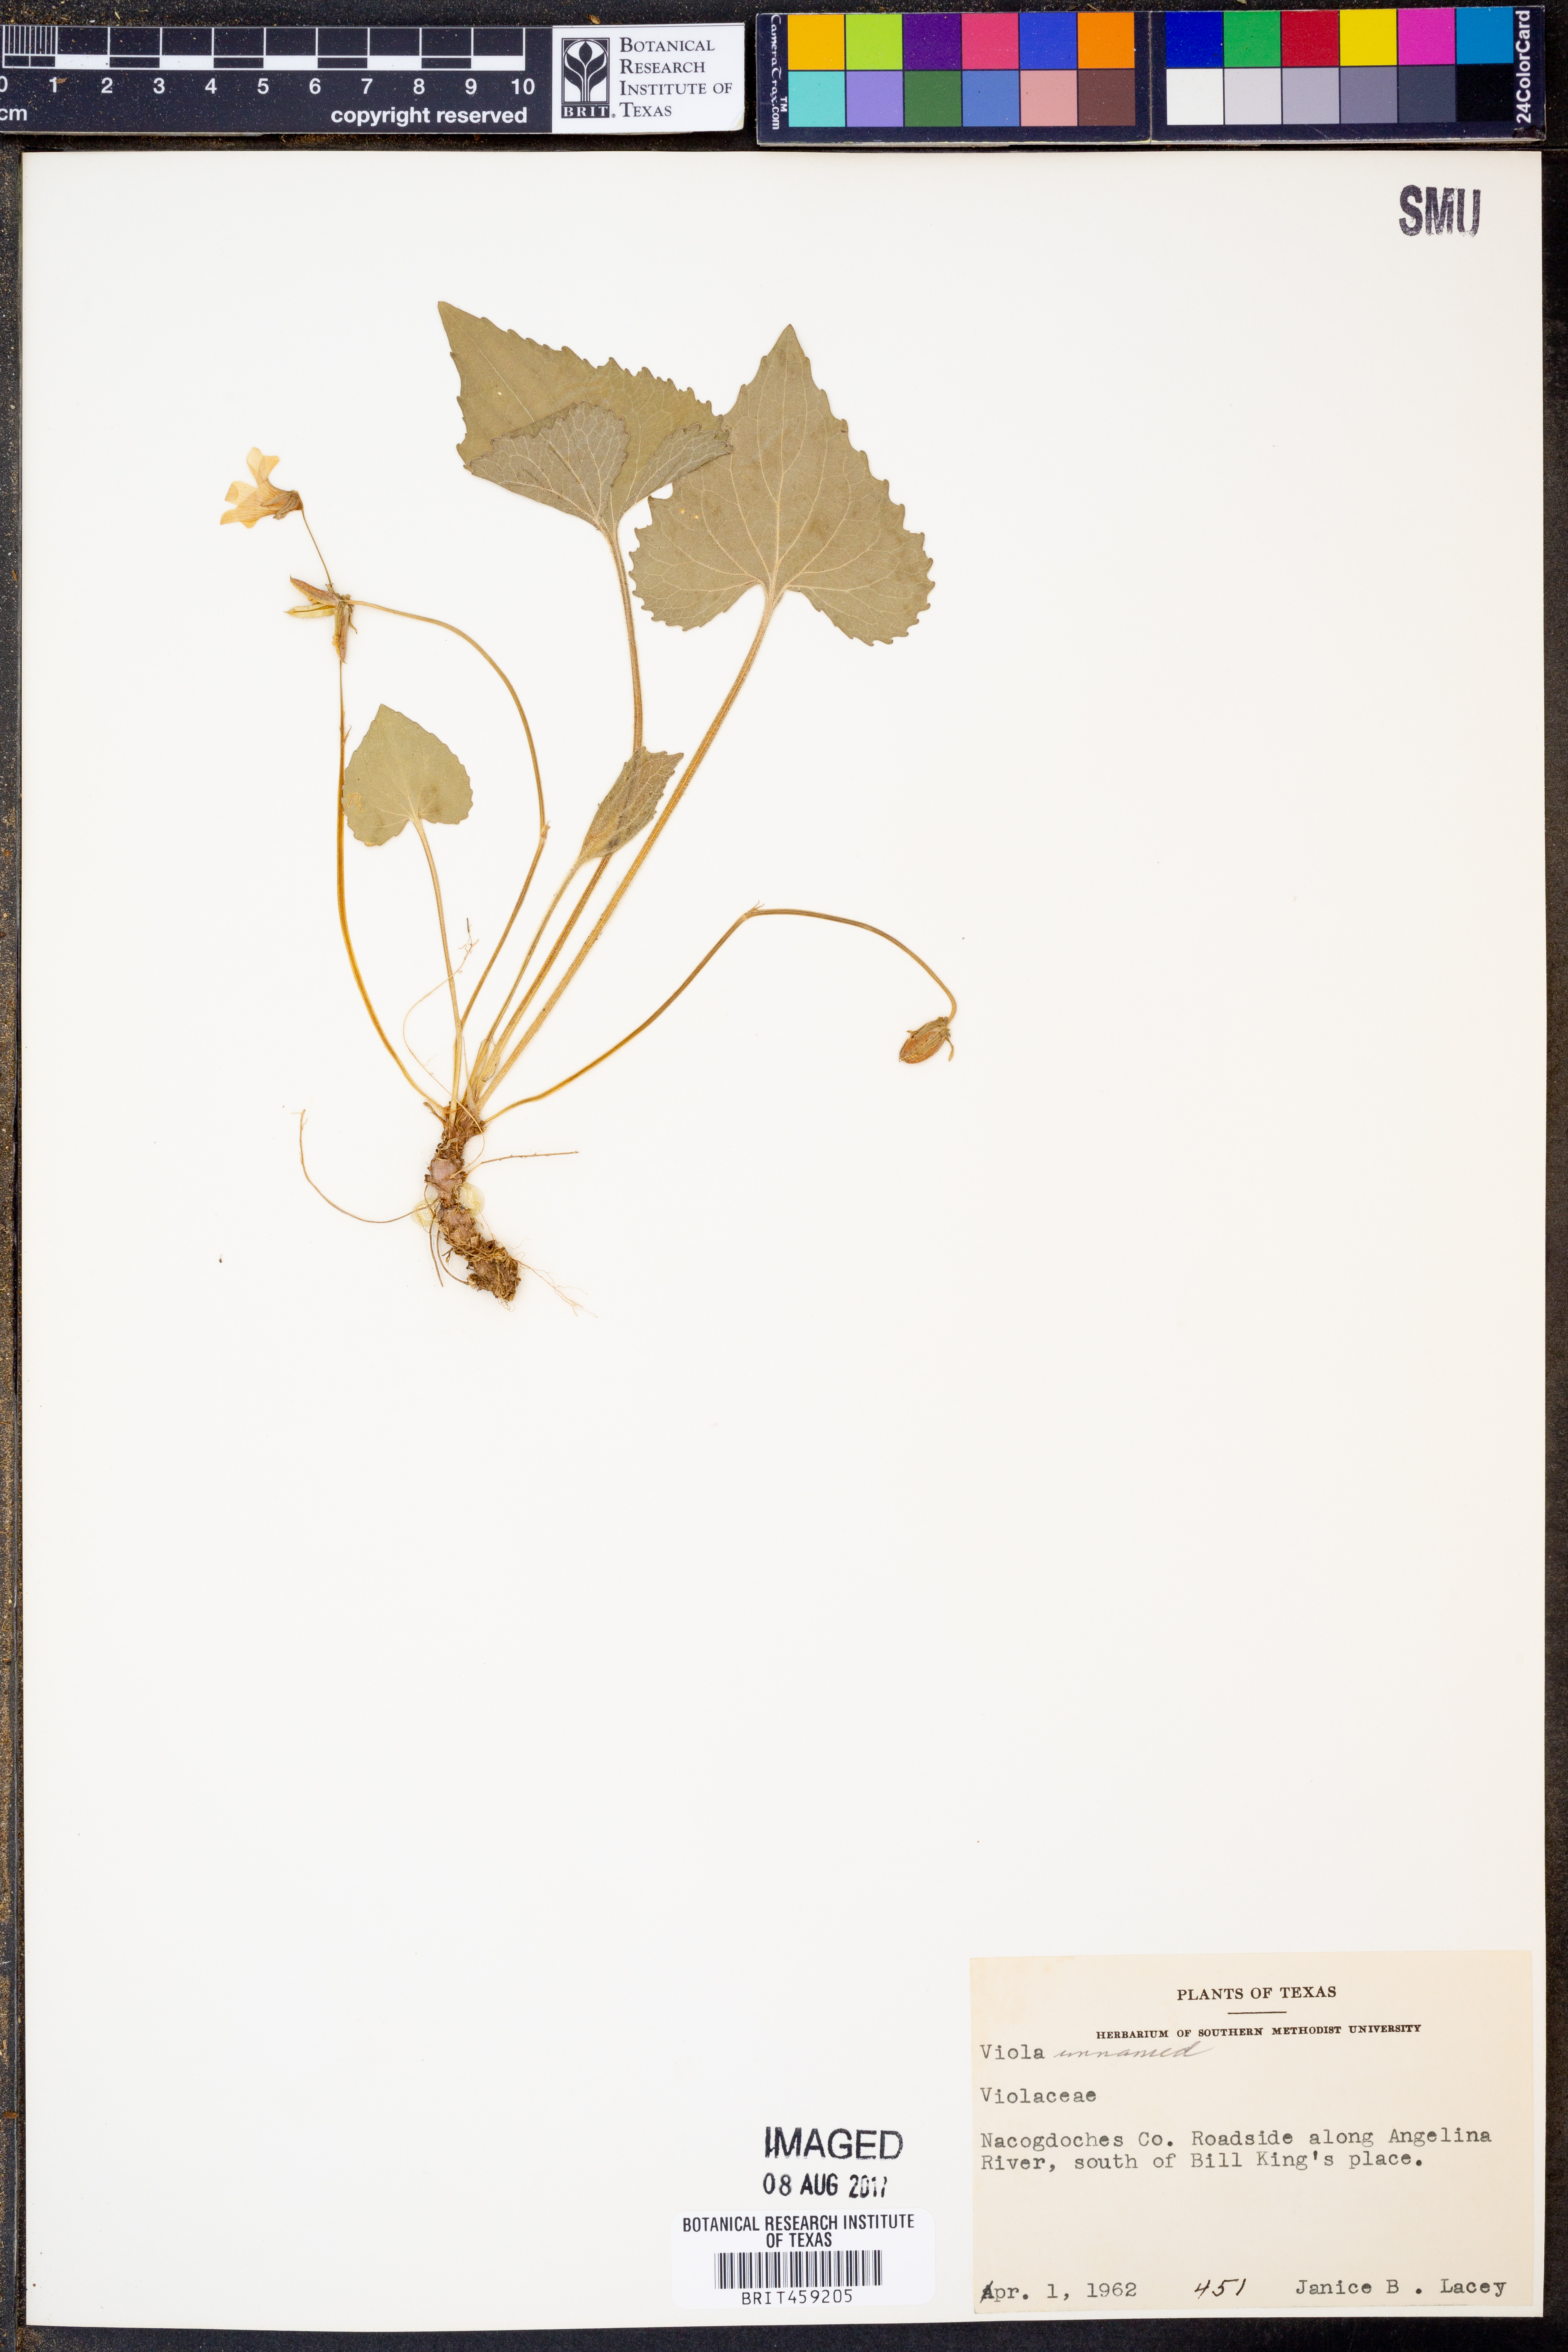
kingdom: Plantae
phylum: Tracheophyta
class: Magnoliopsida
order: Malpighiales
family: Violaceae
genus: Viola
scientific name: Viola
